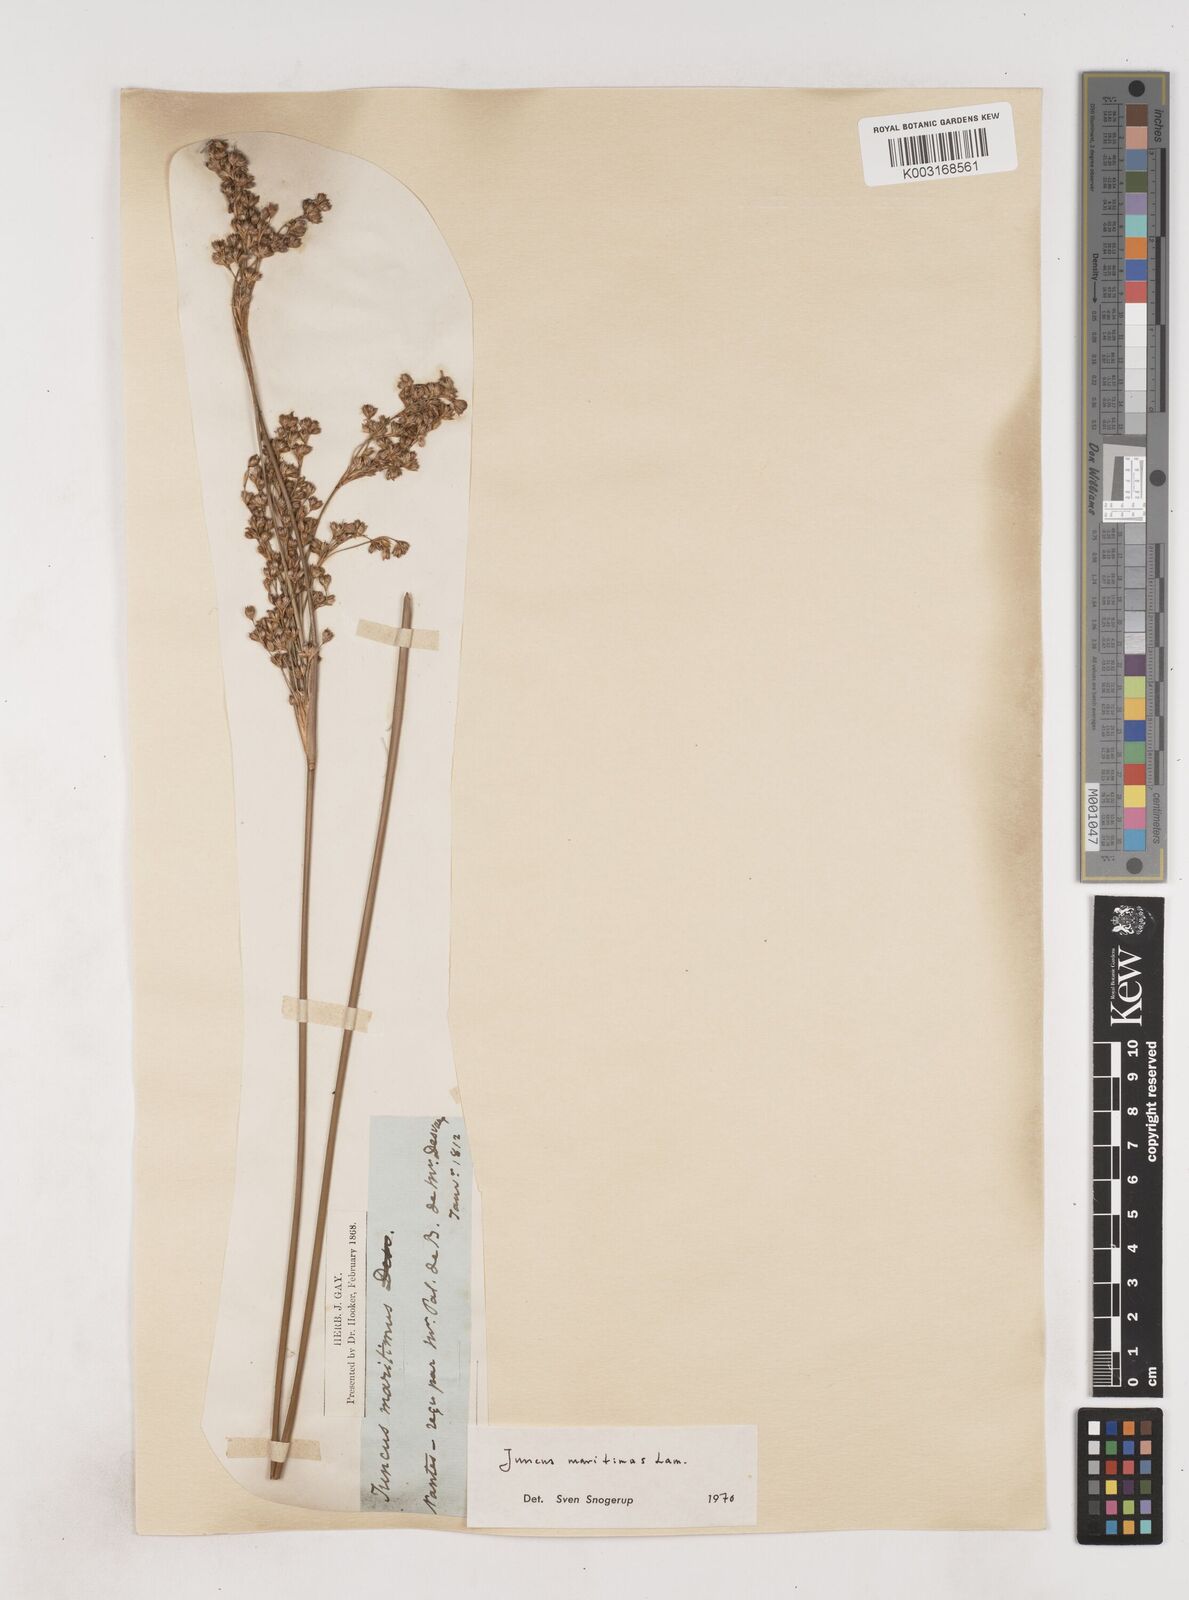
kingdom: Plantae
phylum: Tracheophyta
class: Liliopsida
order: Poales
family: Juncaceae
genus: Juncus
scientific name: Juncus maritimus
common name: Sea rush
